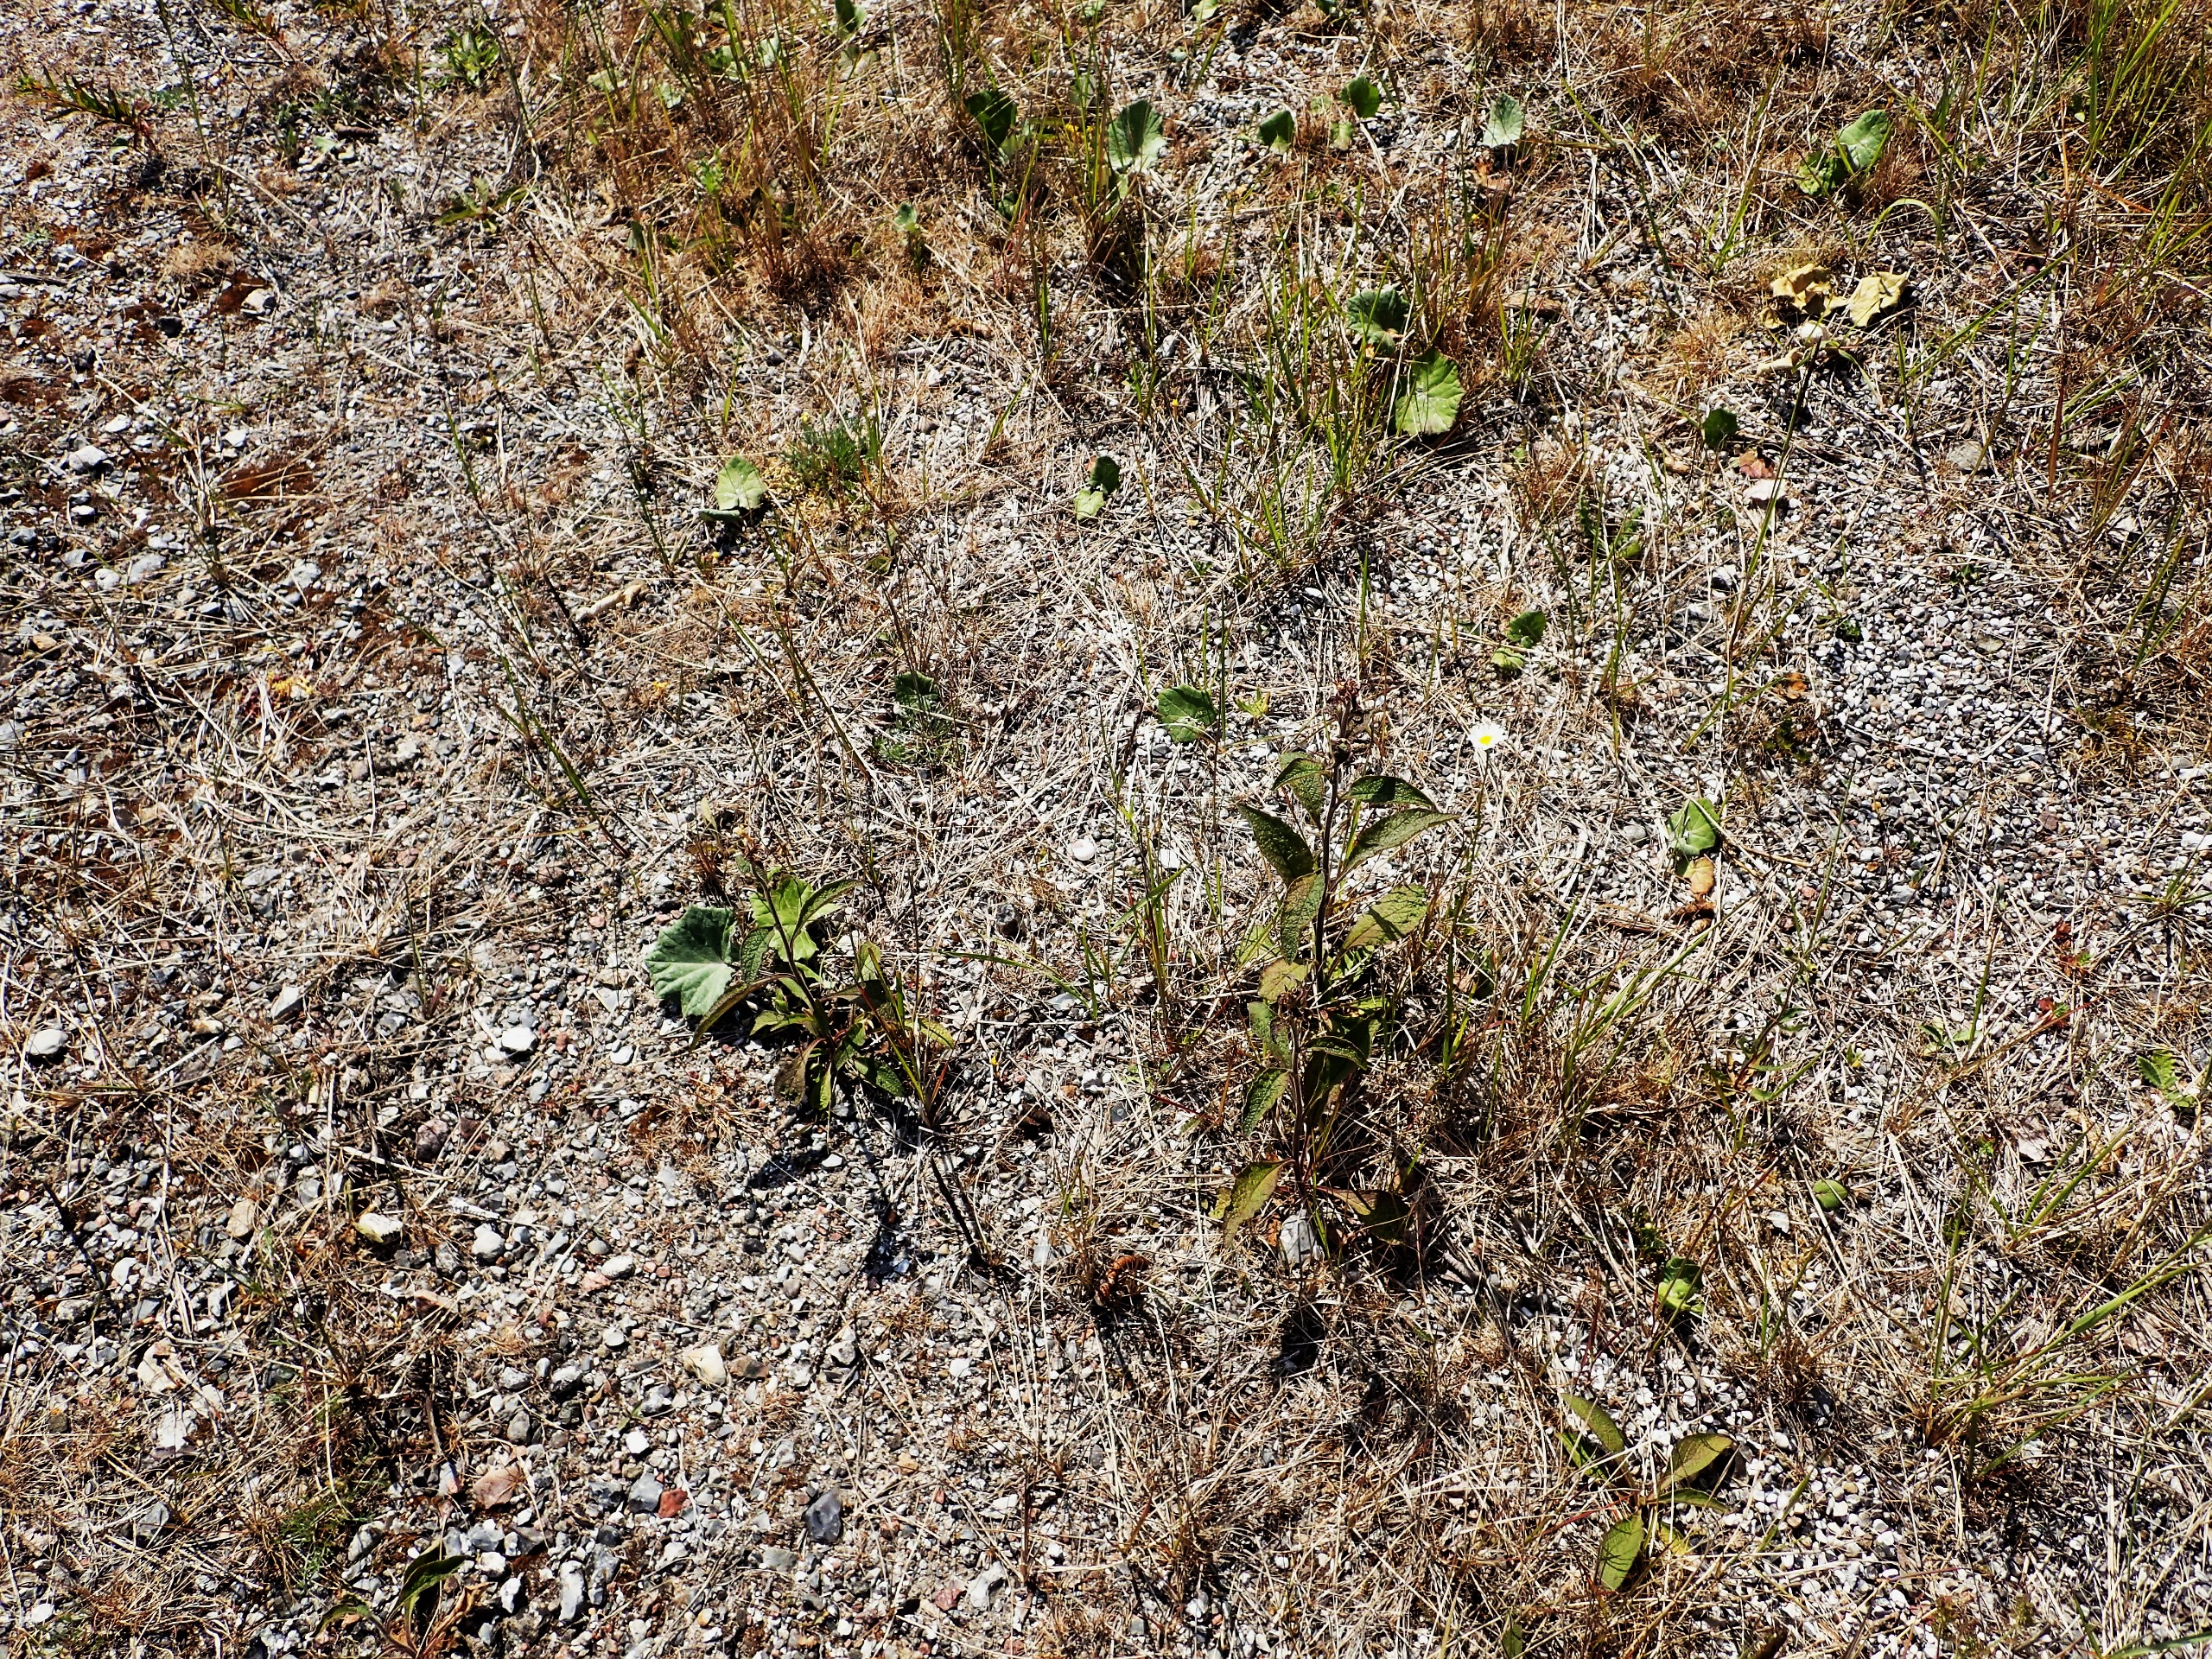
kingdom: Plantae
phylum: Tracheophyta
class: Magnoliopsida
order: Asterales
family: Asteraceae
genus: Pentanema
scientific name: Pentanema squarrosum
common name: Trekløft-alant
